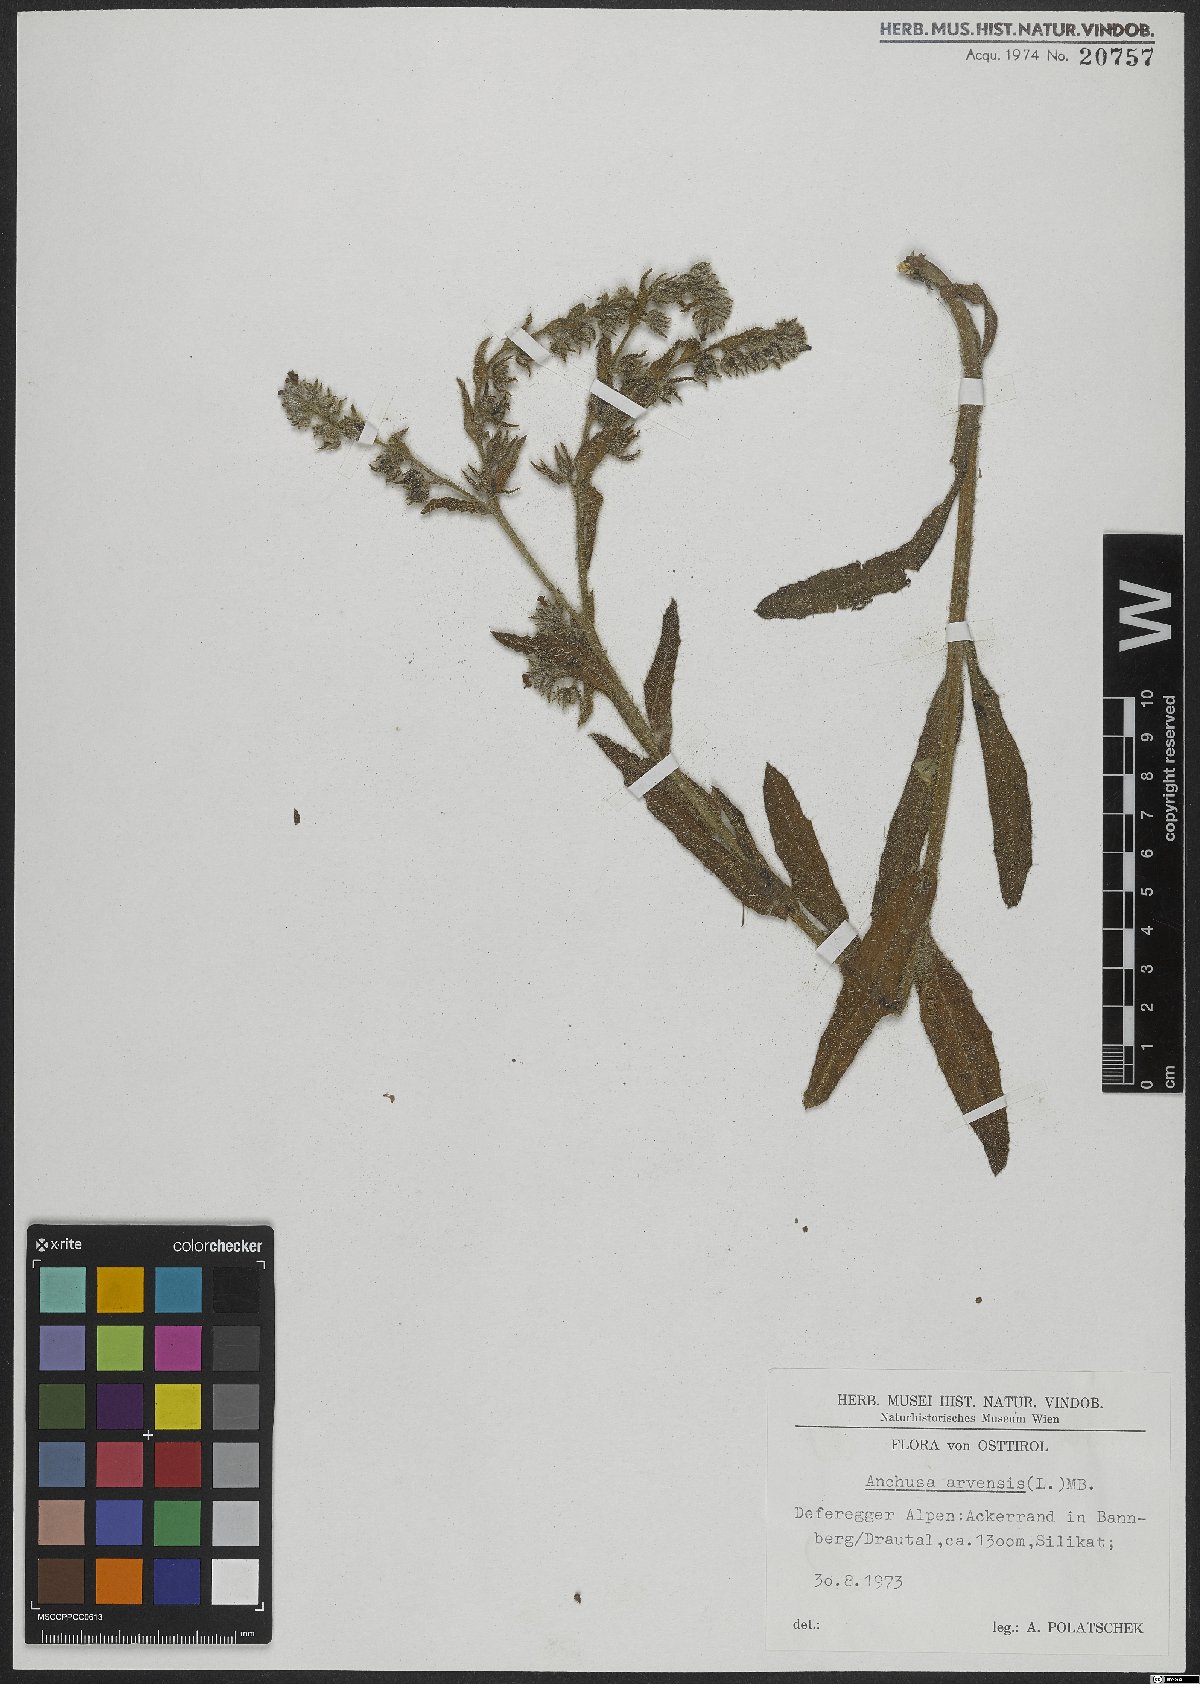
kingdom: Plantae
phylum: Tracheophyta
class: Magnoliopsida
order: Boraginales
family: Boraginaceae
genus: Lycopsis
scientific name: Lycopsis arvensis
